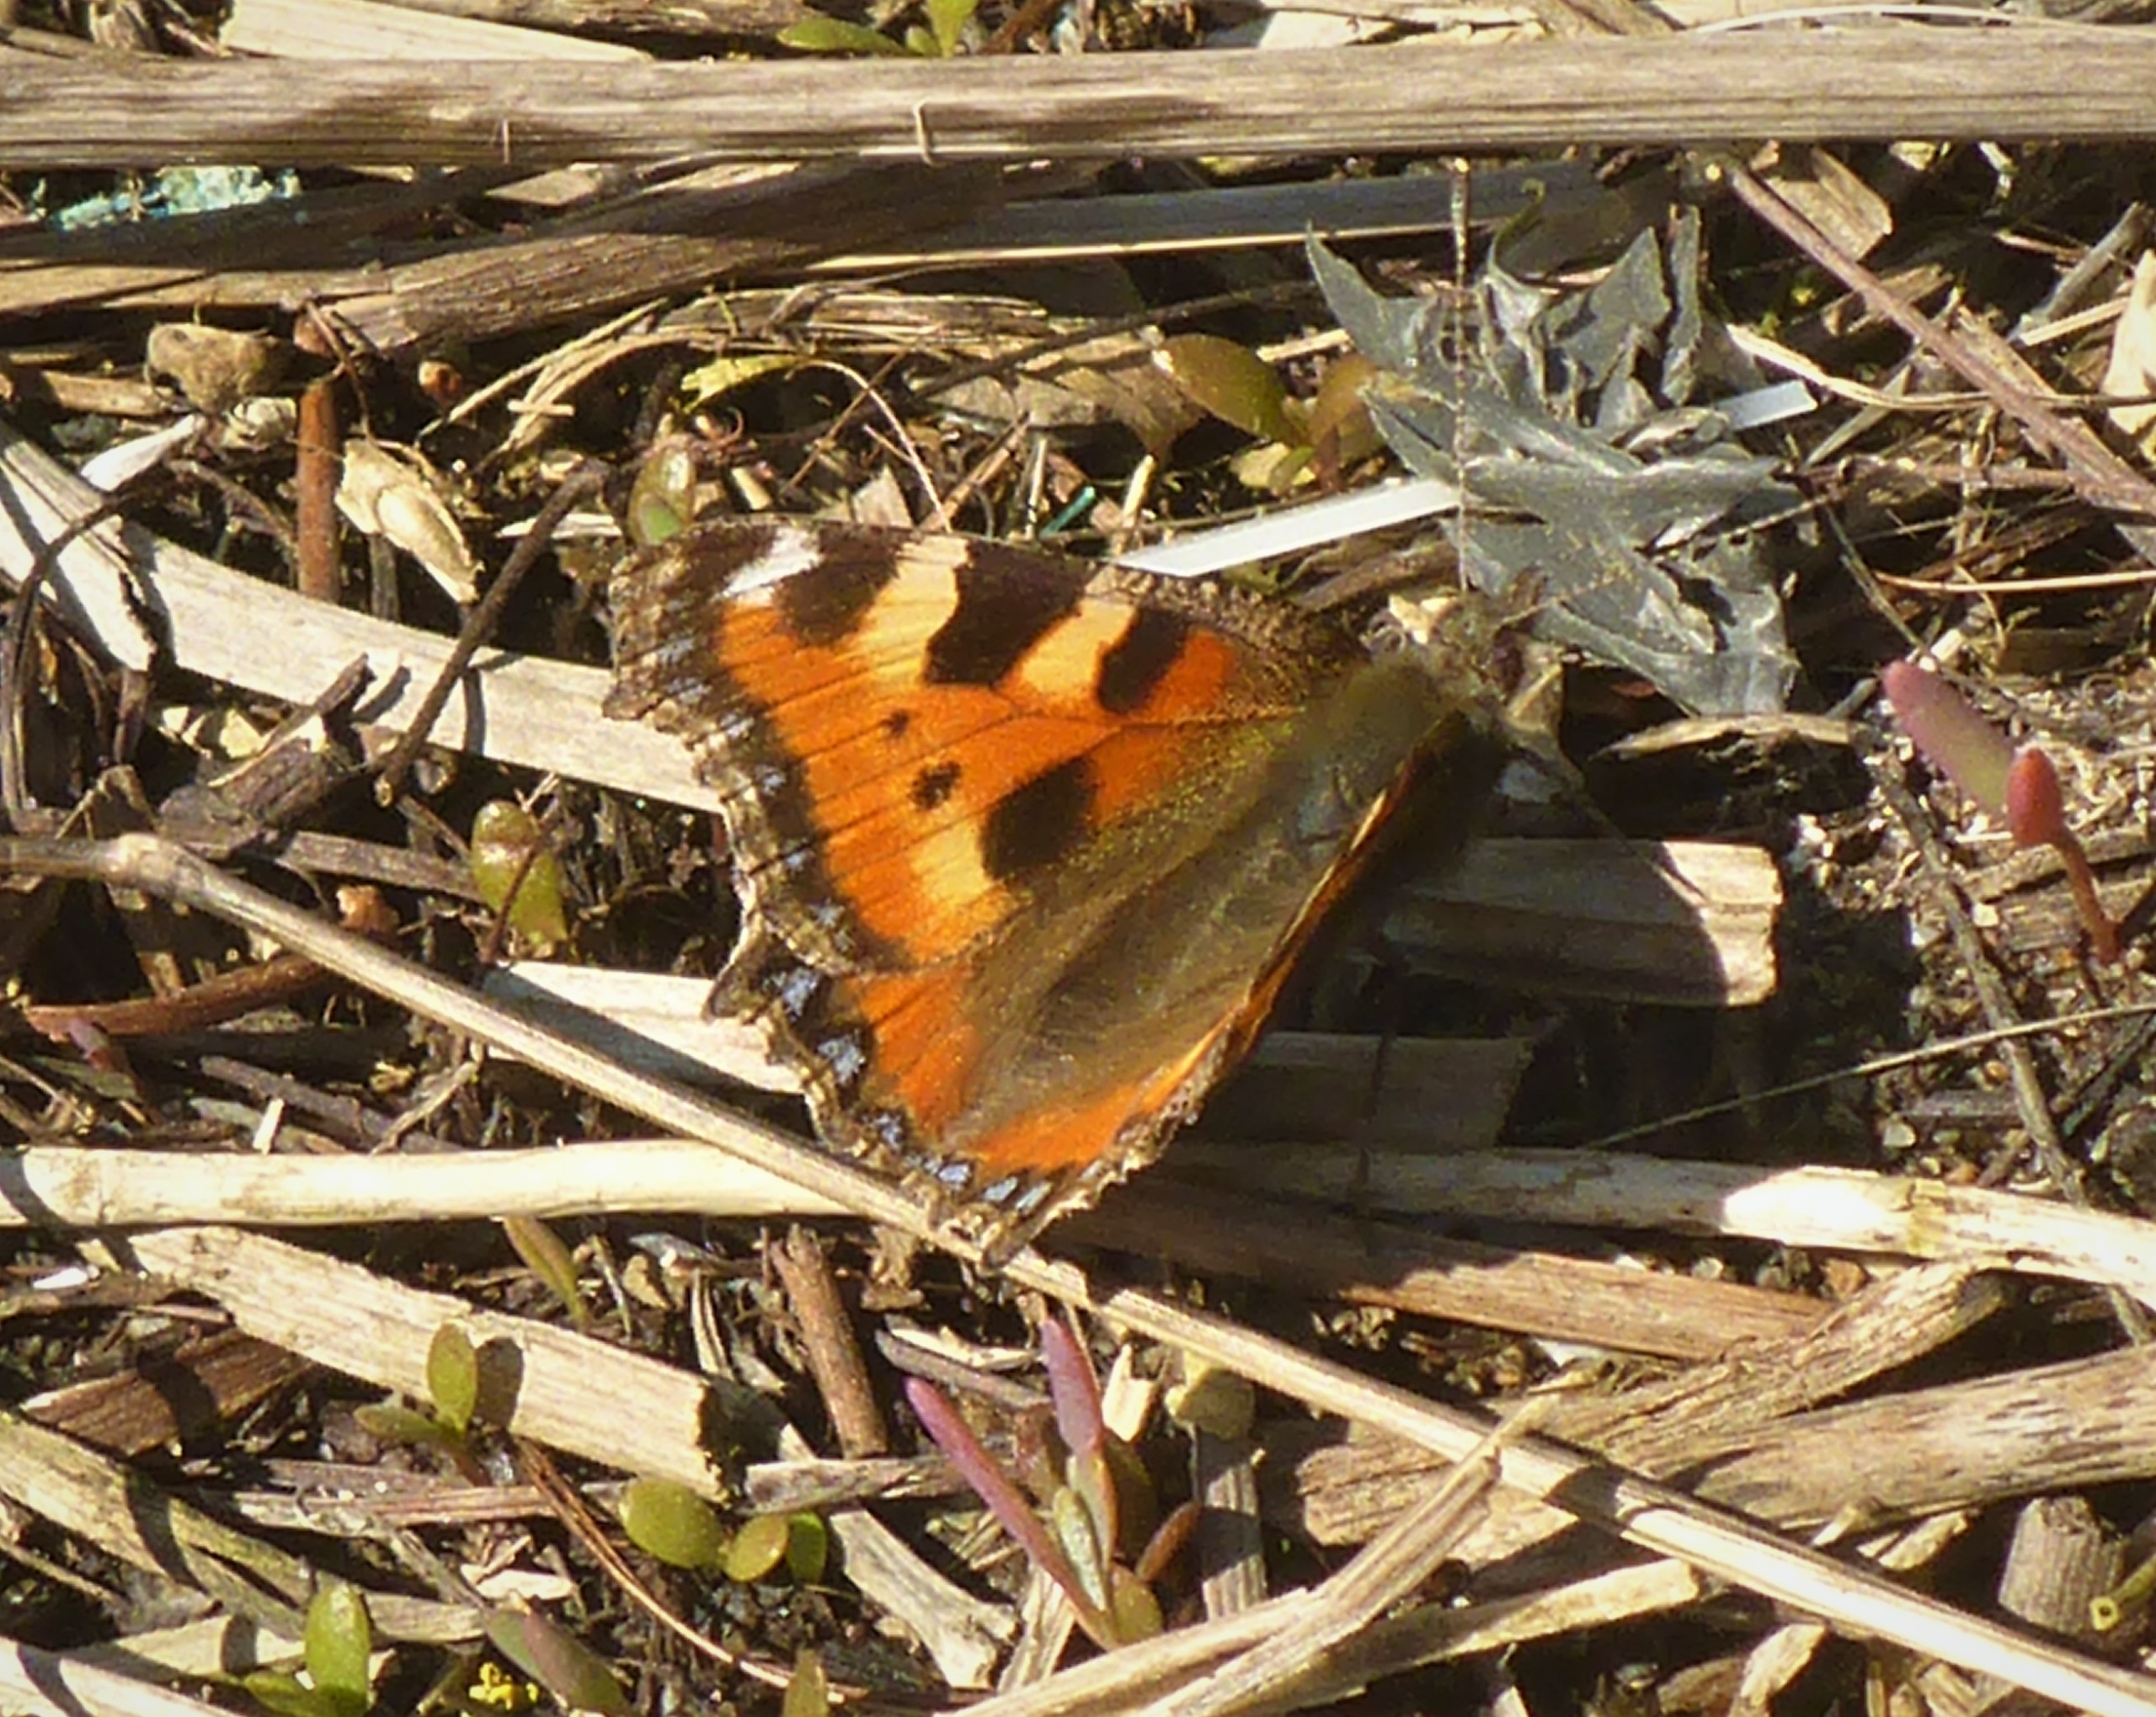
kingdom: Animalia
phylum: Arthropoda
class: Insecta
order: Lepidoptera
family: Nymphalidae
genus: Aglais
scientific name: Aglais urticae
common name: Nældens takvinge
